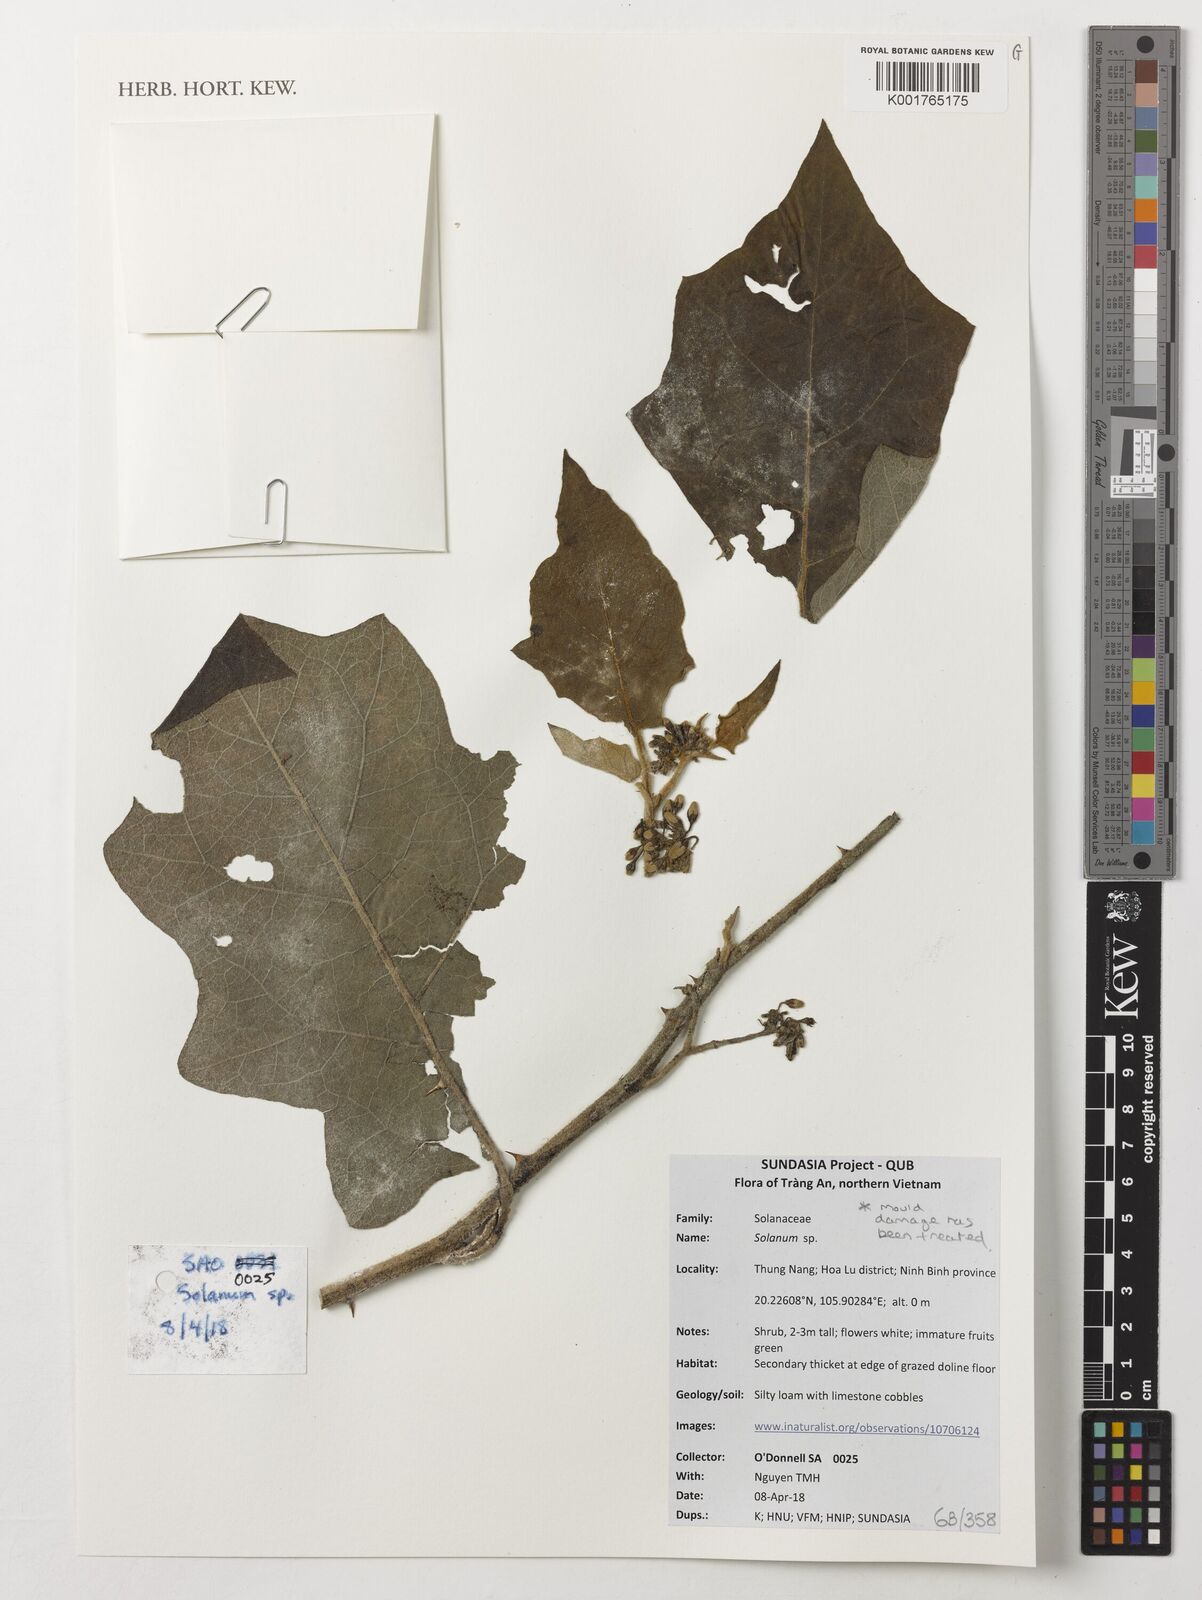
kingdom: Plantae
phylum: Tracheophyta
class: Magnoliopsida
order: Solanales
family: Solanaceae
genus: Solanum
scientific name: Solanum
